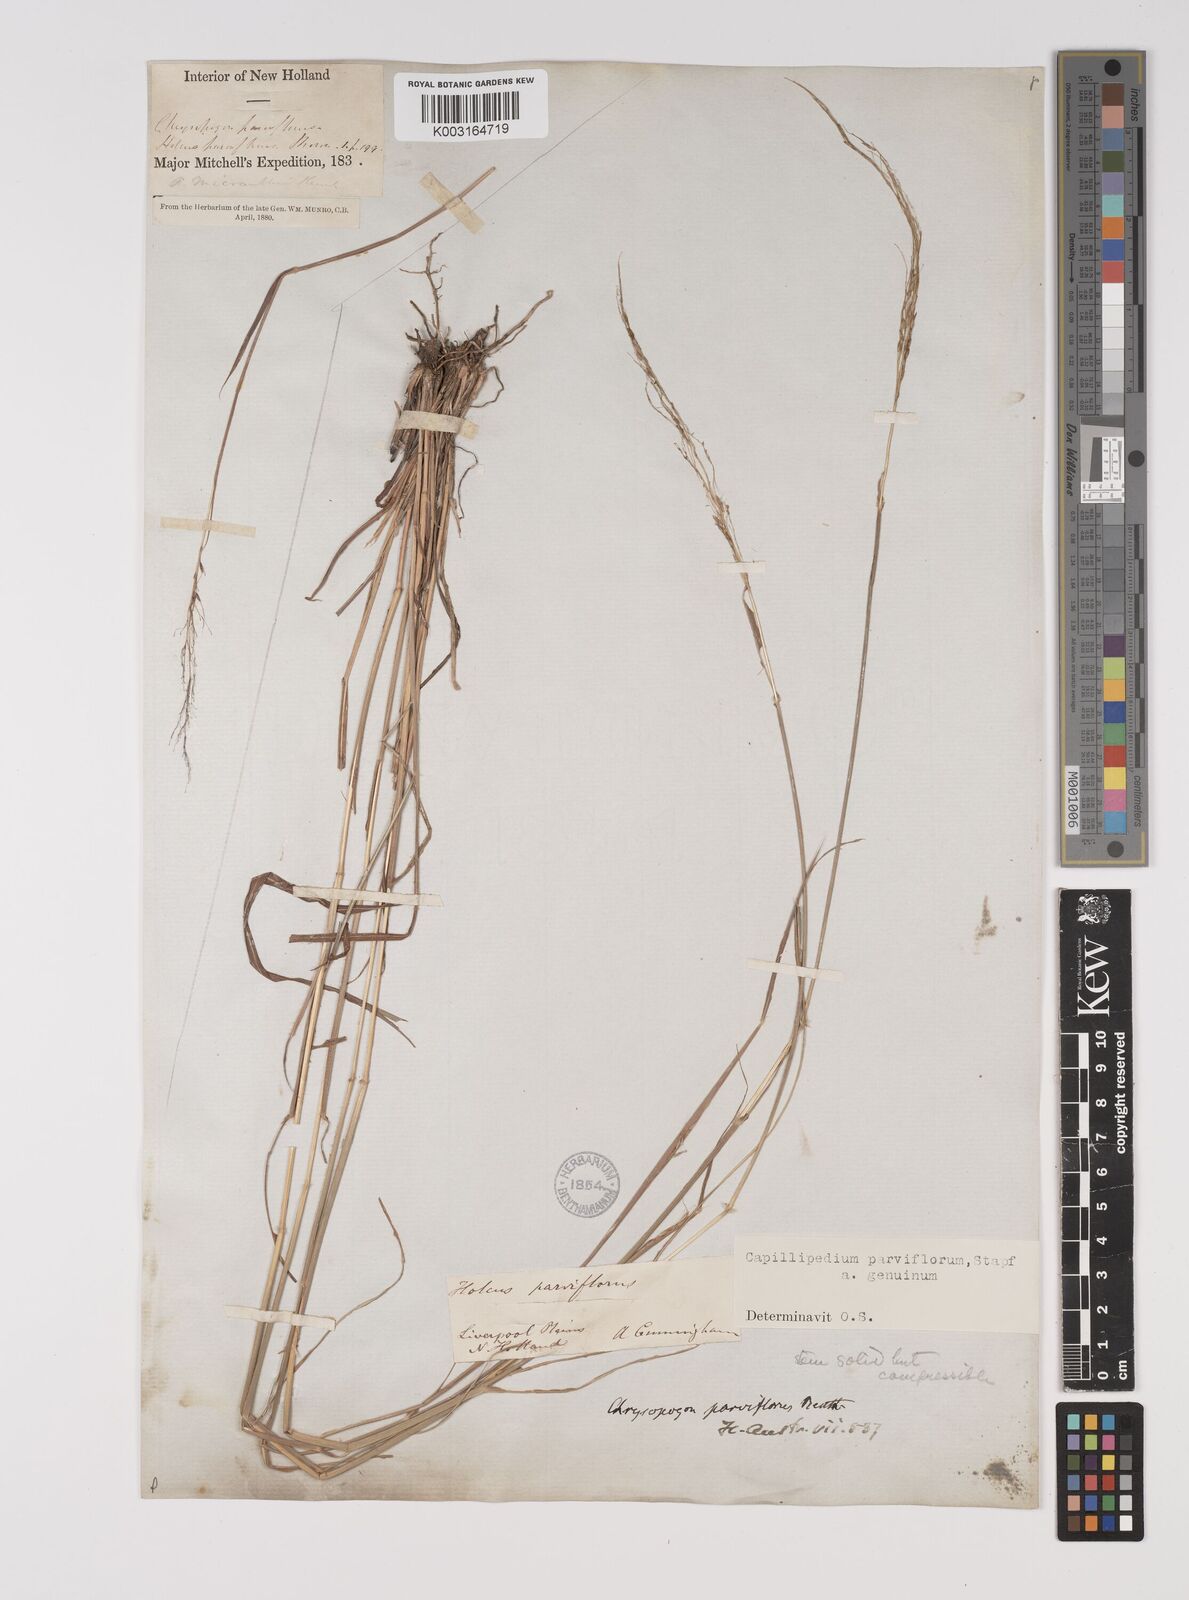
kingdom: Plantae
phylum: Tracheophyta
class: Liliopsida
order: Poales
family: Poaceae
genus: Capillipedium
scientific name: Capillipedium parviflorum
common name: Golden-beard
